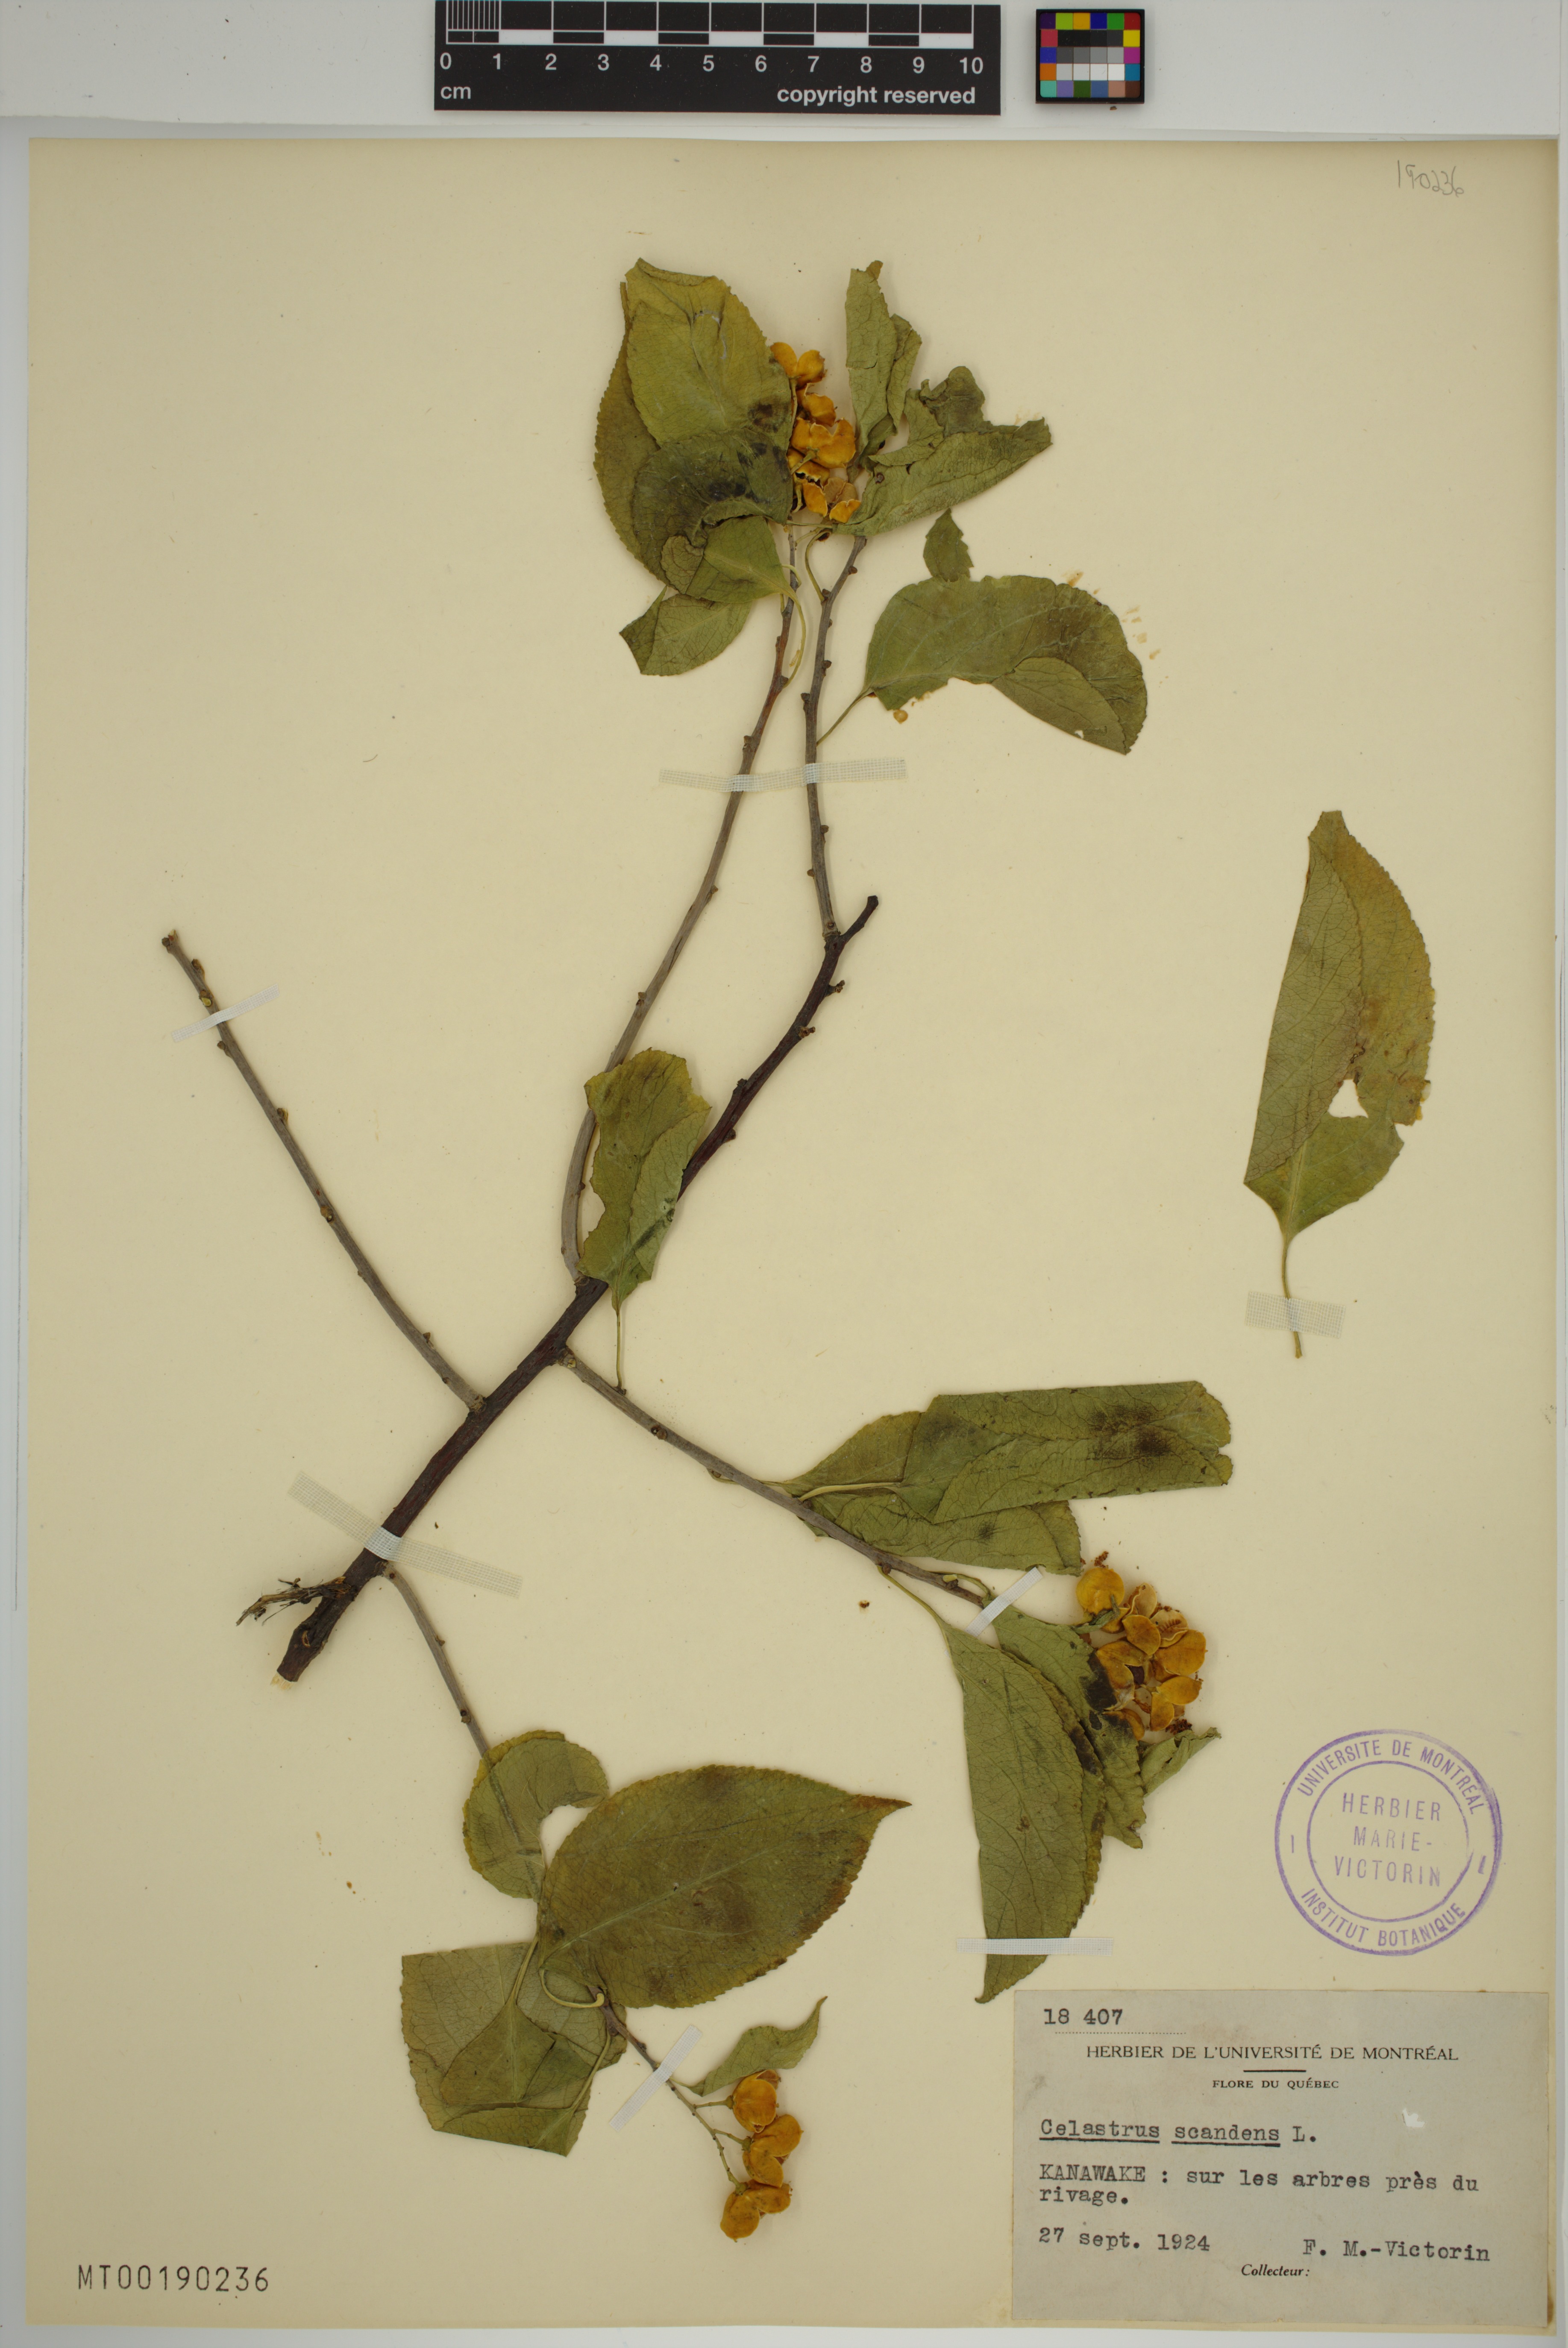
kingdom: Plantae
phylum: Tracheophyta
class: Magnoliopsida
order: Celastrales
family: Celastraceae
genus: Celastrus
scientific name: Celastrus scandens
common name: American bittersweet
